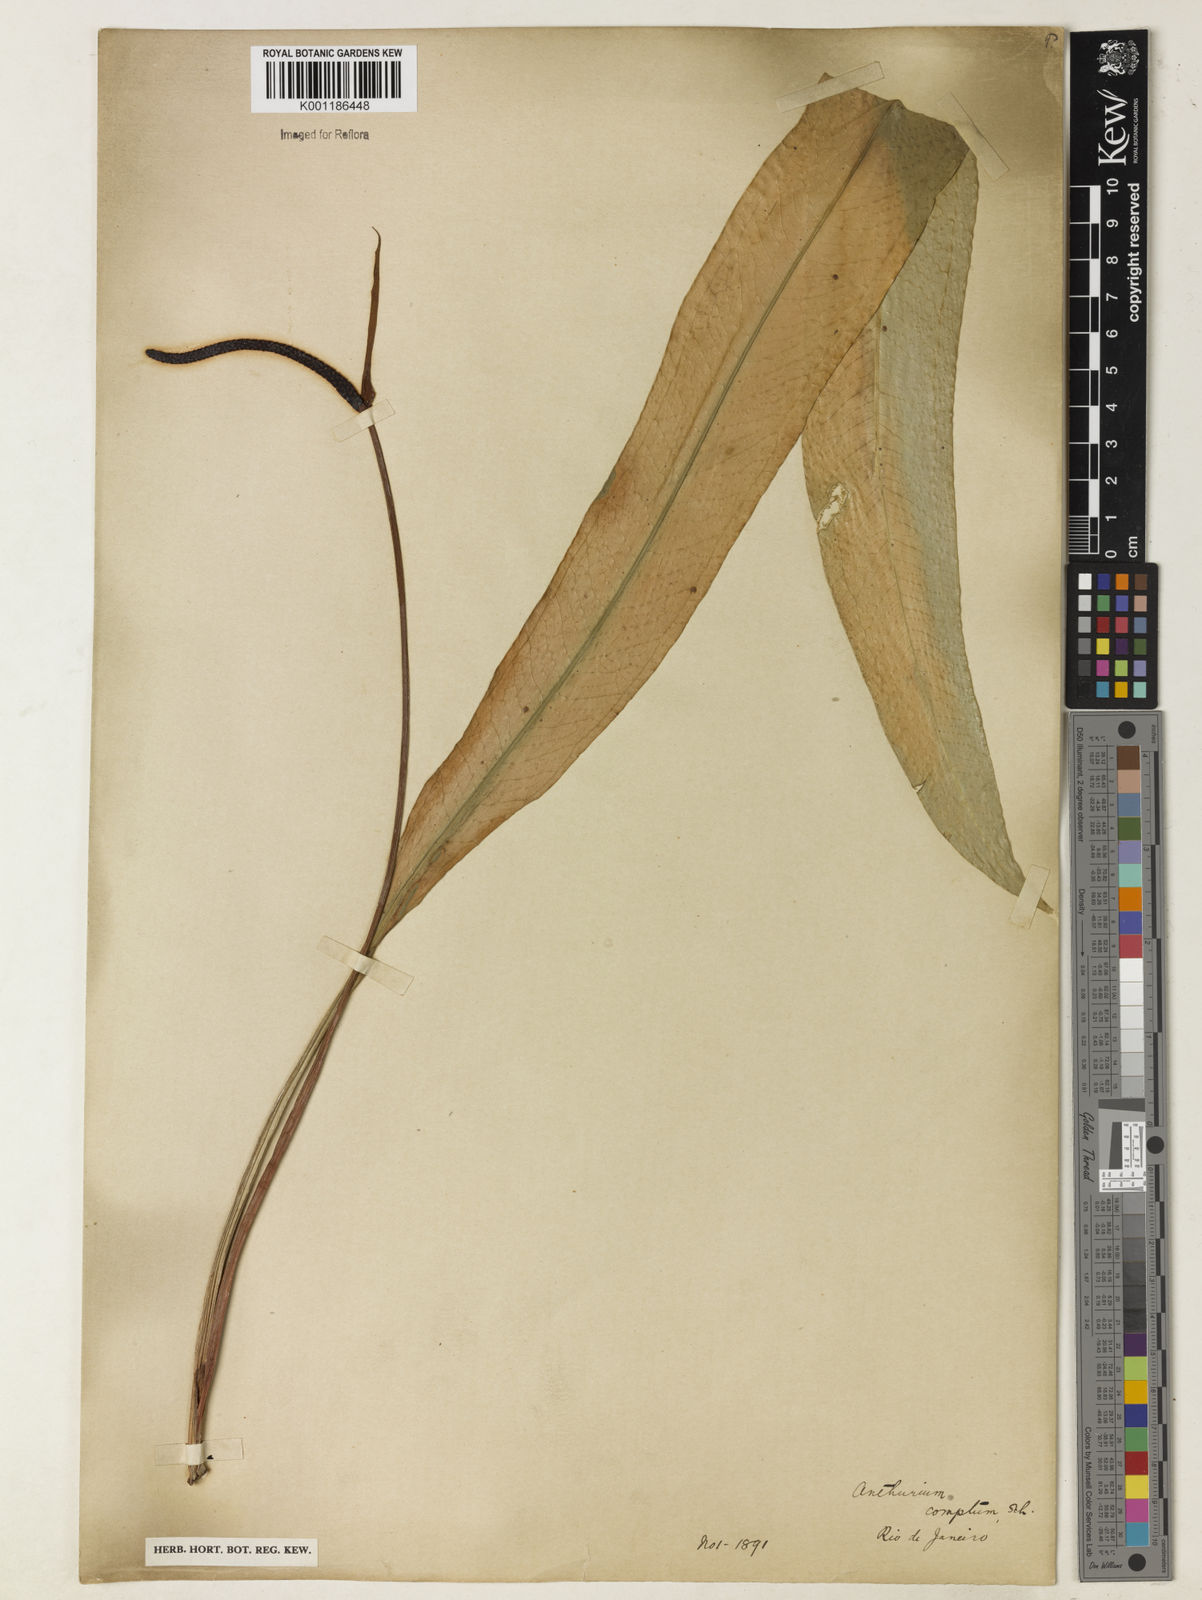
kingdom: Plantae
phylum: Tracheophyta
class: Liliopsida
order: Alismatales
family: Araceae
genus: Anthurium
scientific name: Anthurium comtum
